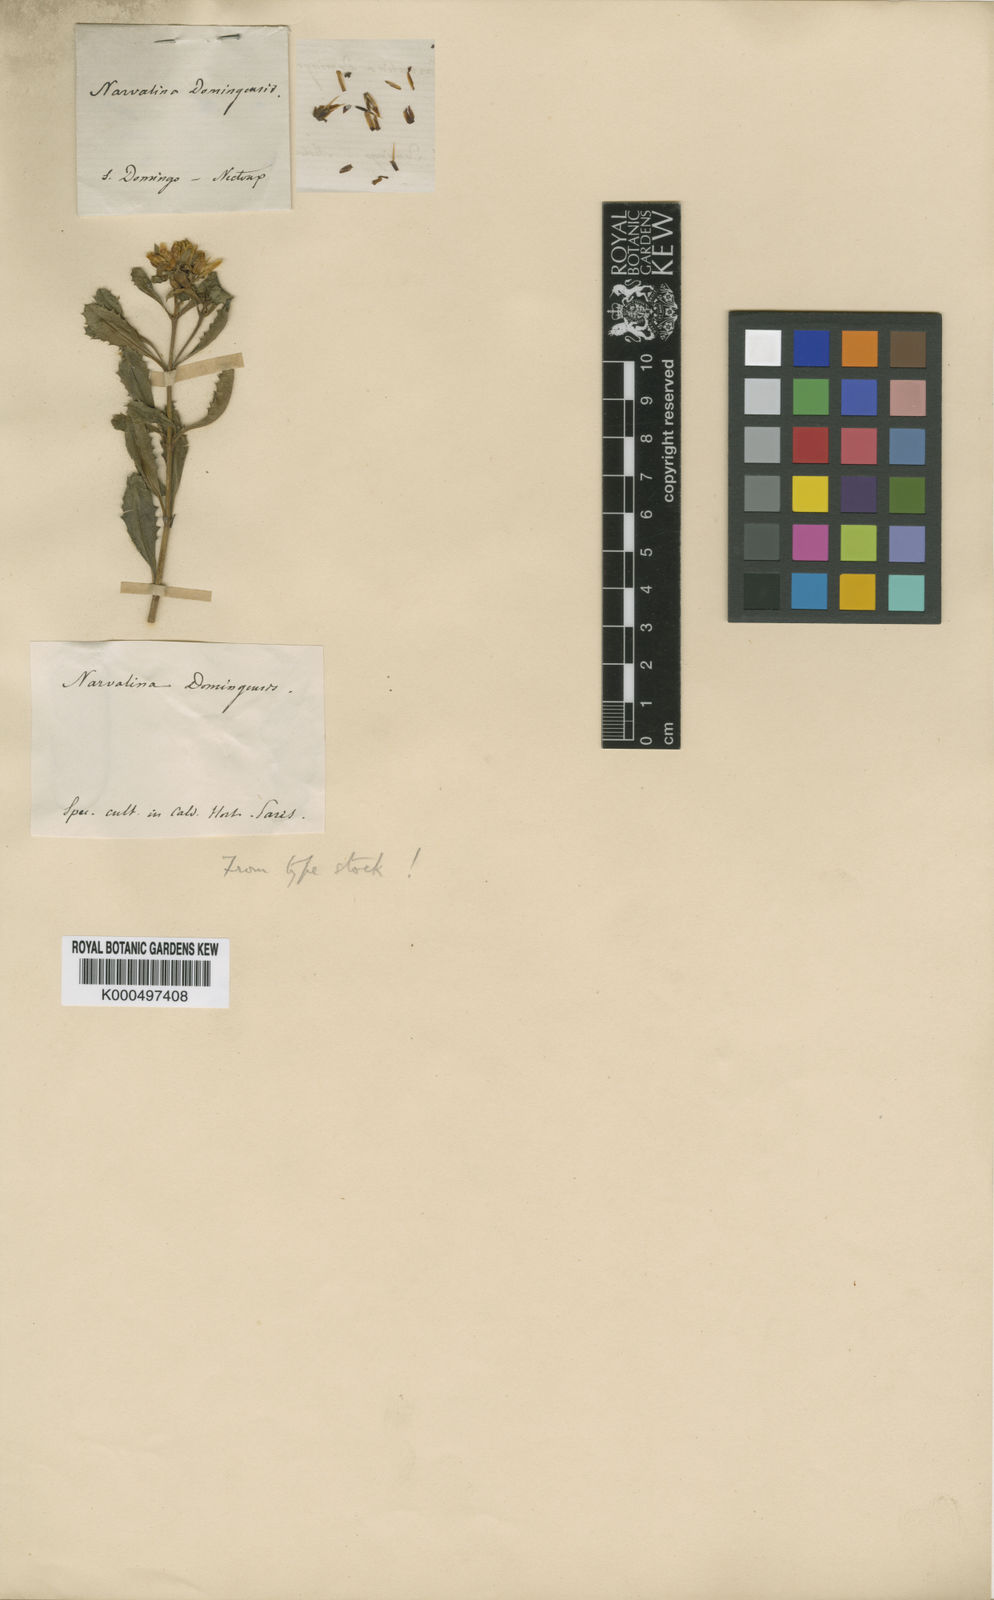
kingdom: Plantae
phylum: Tracheophyta
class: Magnoliopsida
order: Asterales
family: Asteraceae
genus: Narvalina
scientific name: Narvalina domingensis
